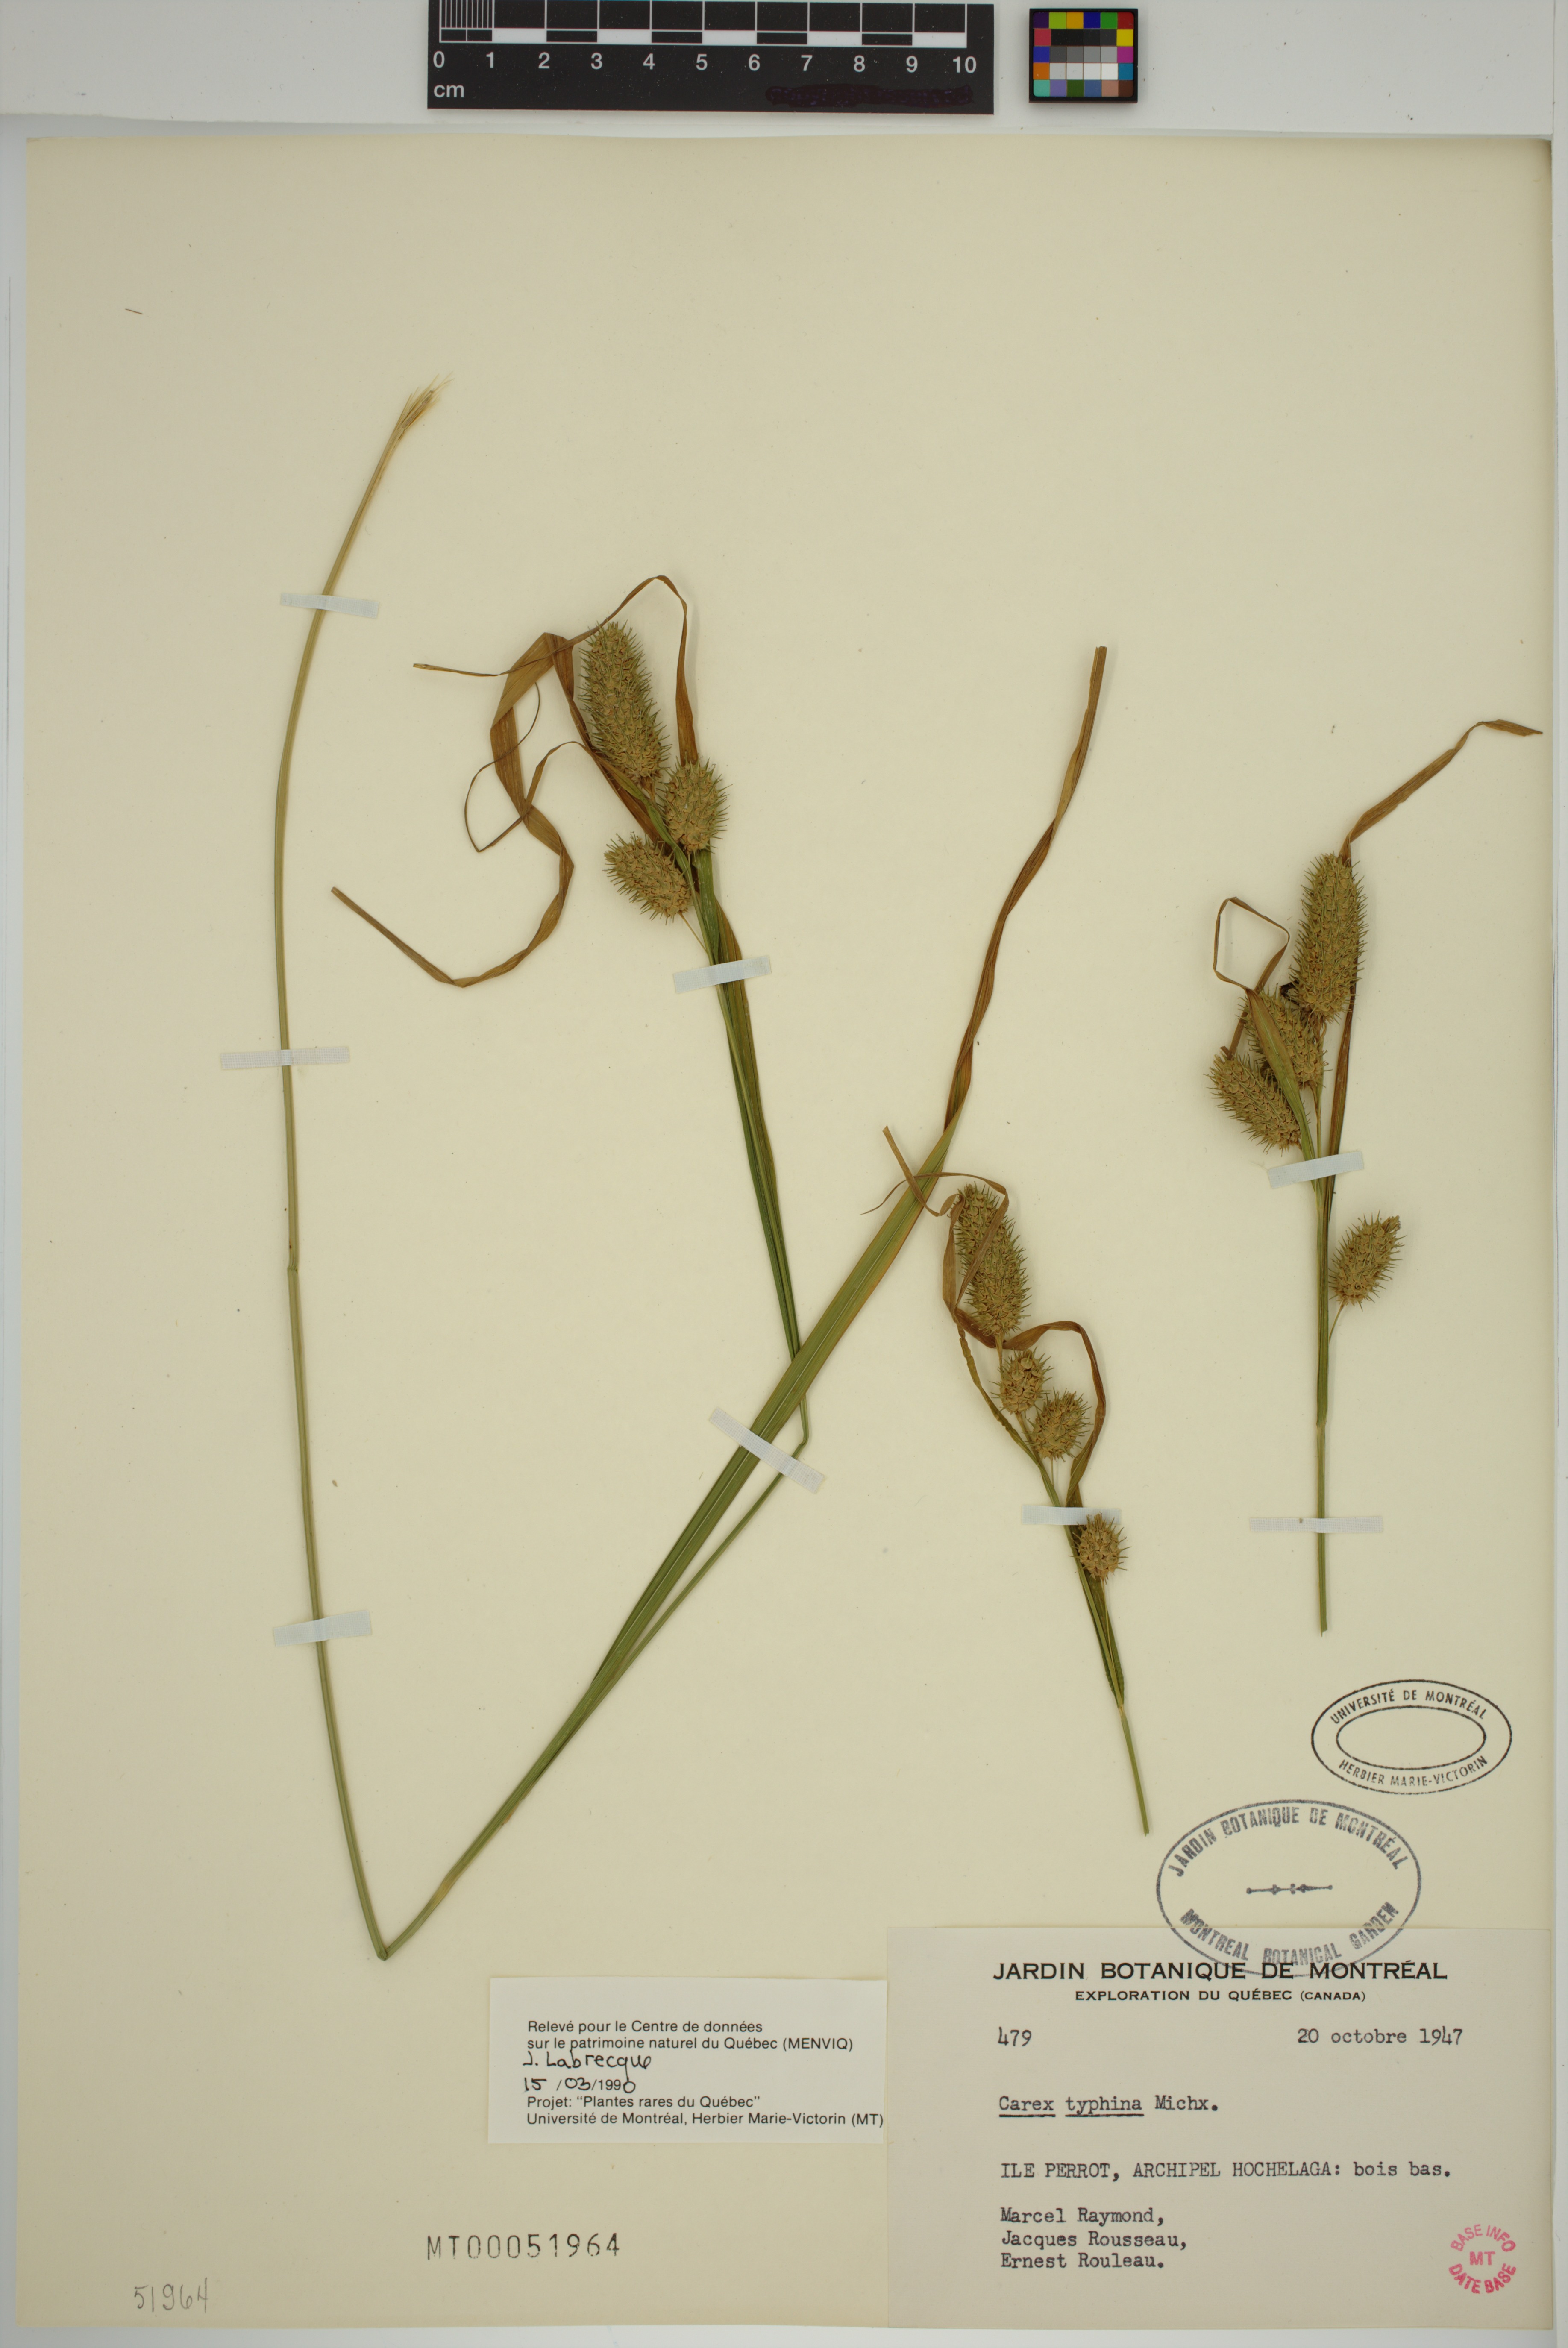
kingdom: Plantae
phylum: Tracheophyta
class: Liliopsida
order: Poales
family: Cyperaceae
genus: Carex
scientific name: Carex typhina
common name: Cattail sedge
